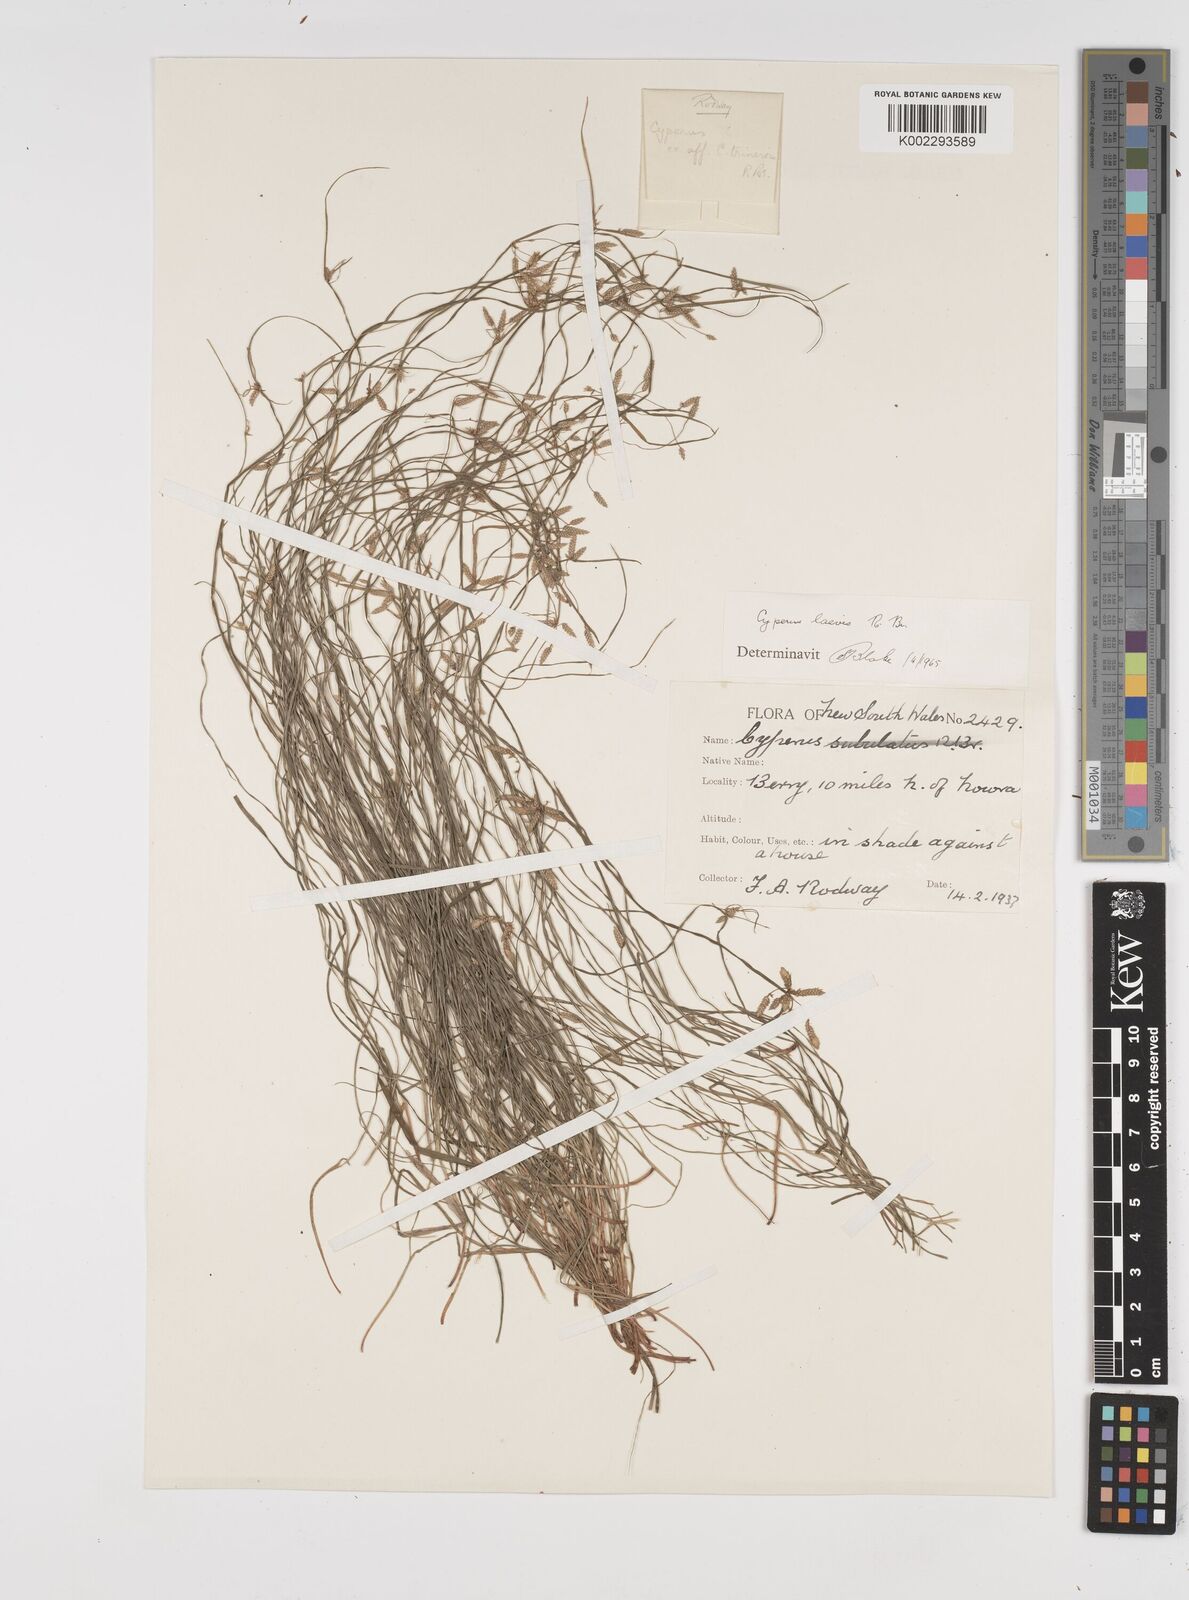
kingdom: Plantae
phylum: Tracheophyta
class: Liliopsida
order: Poales
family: Cyperaceae
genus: Cyperus
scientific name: Cyperus laevis
